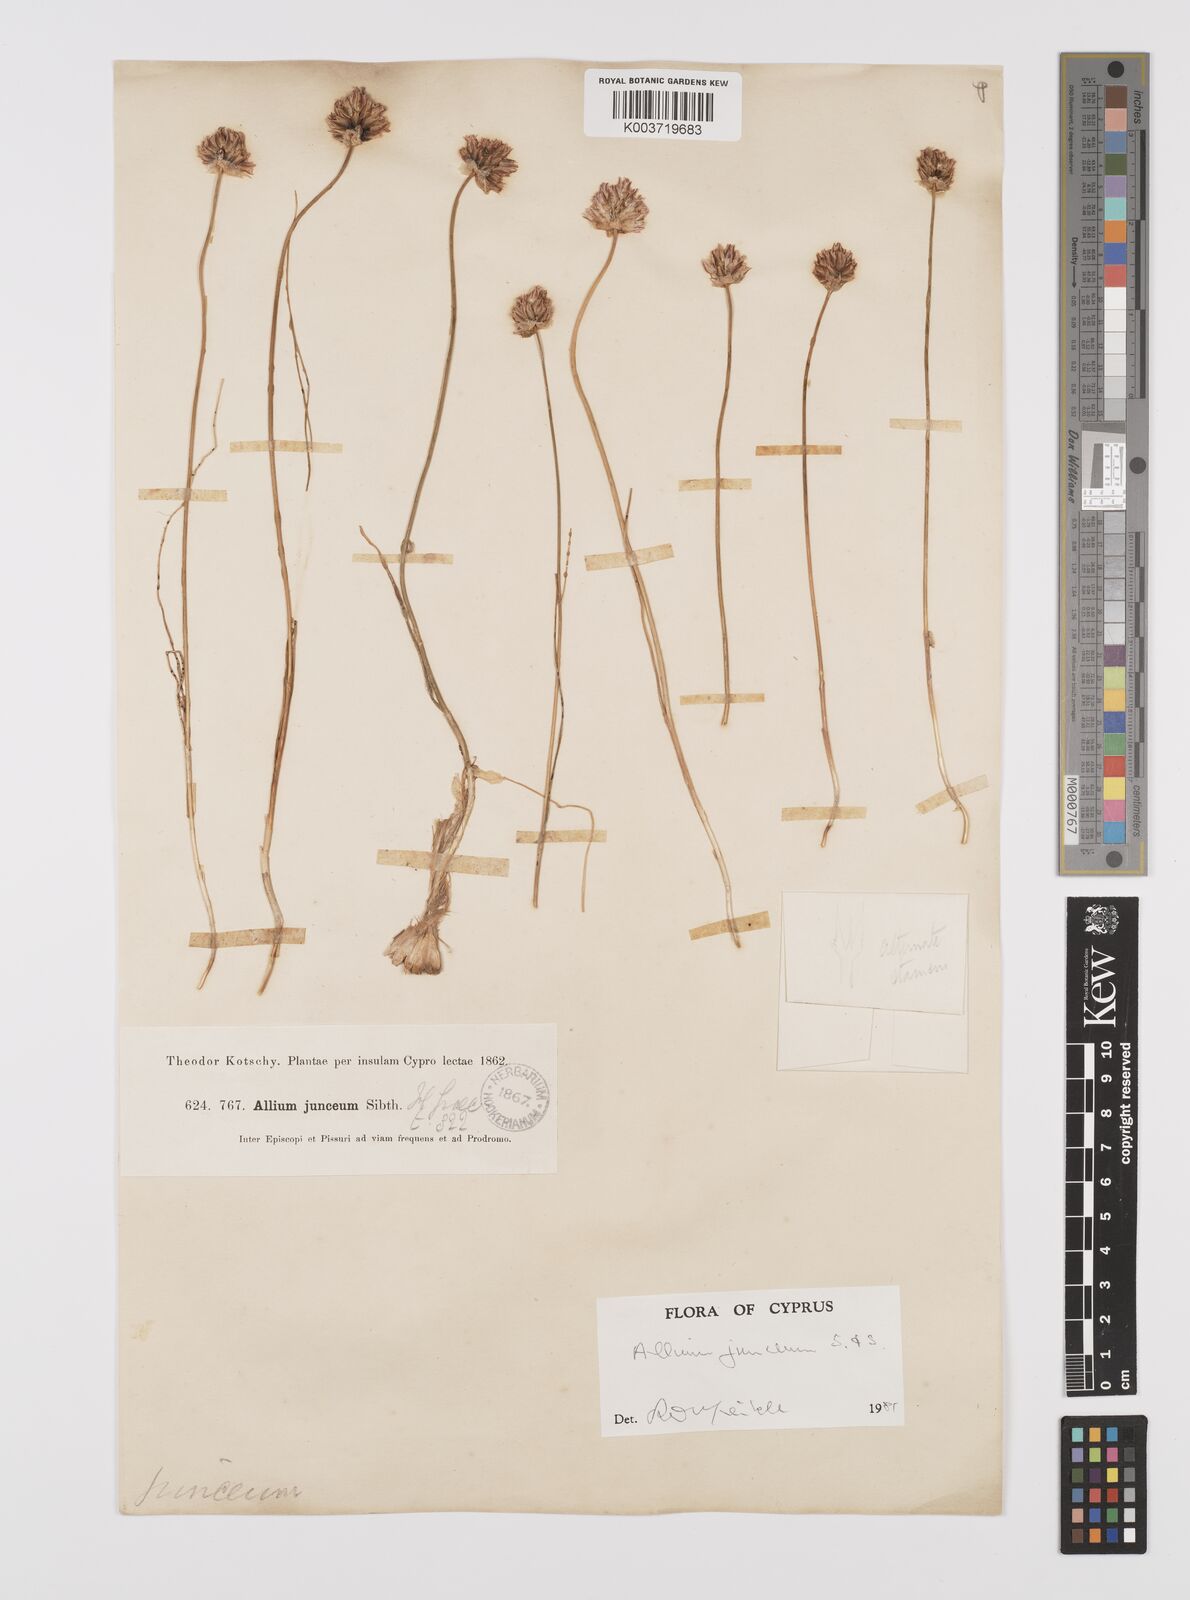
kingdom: Plantae
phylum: Tracheophyta
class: Liliopsida
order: Asparagales
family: Amaryllidaceae
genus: Allium
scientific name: Allium junceum
